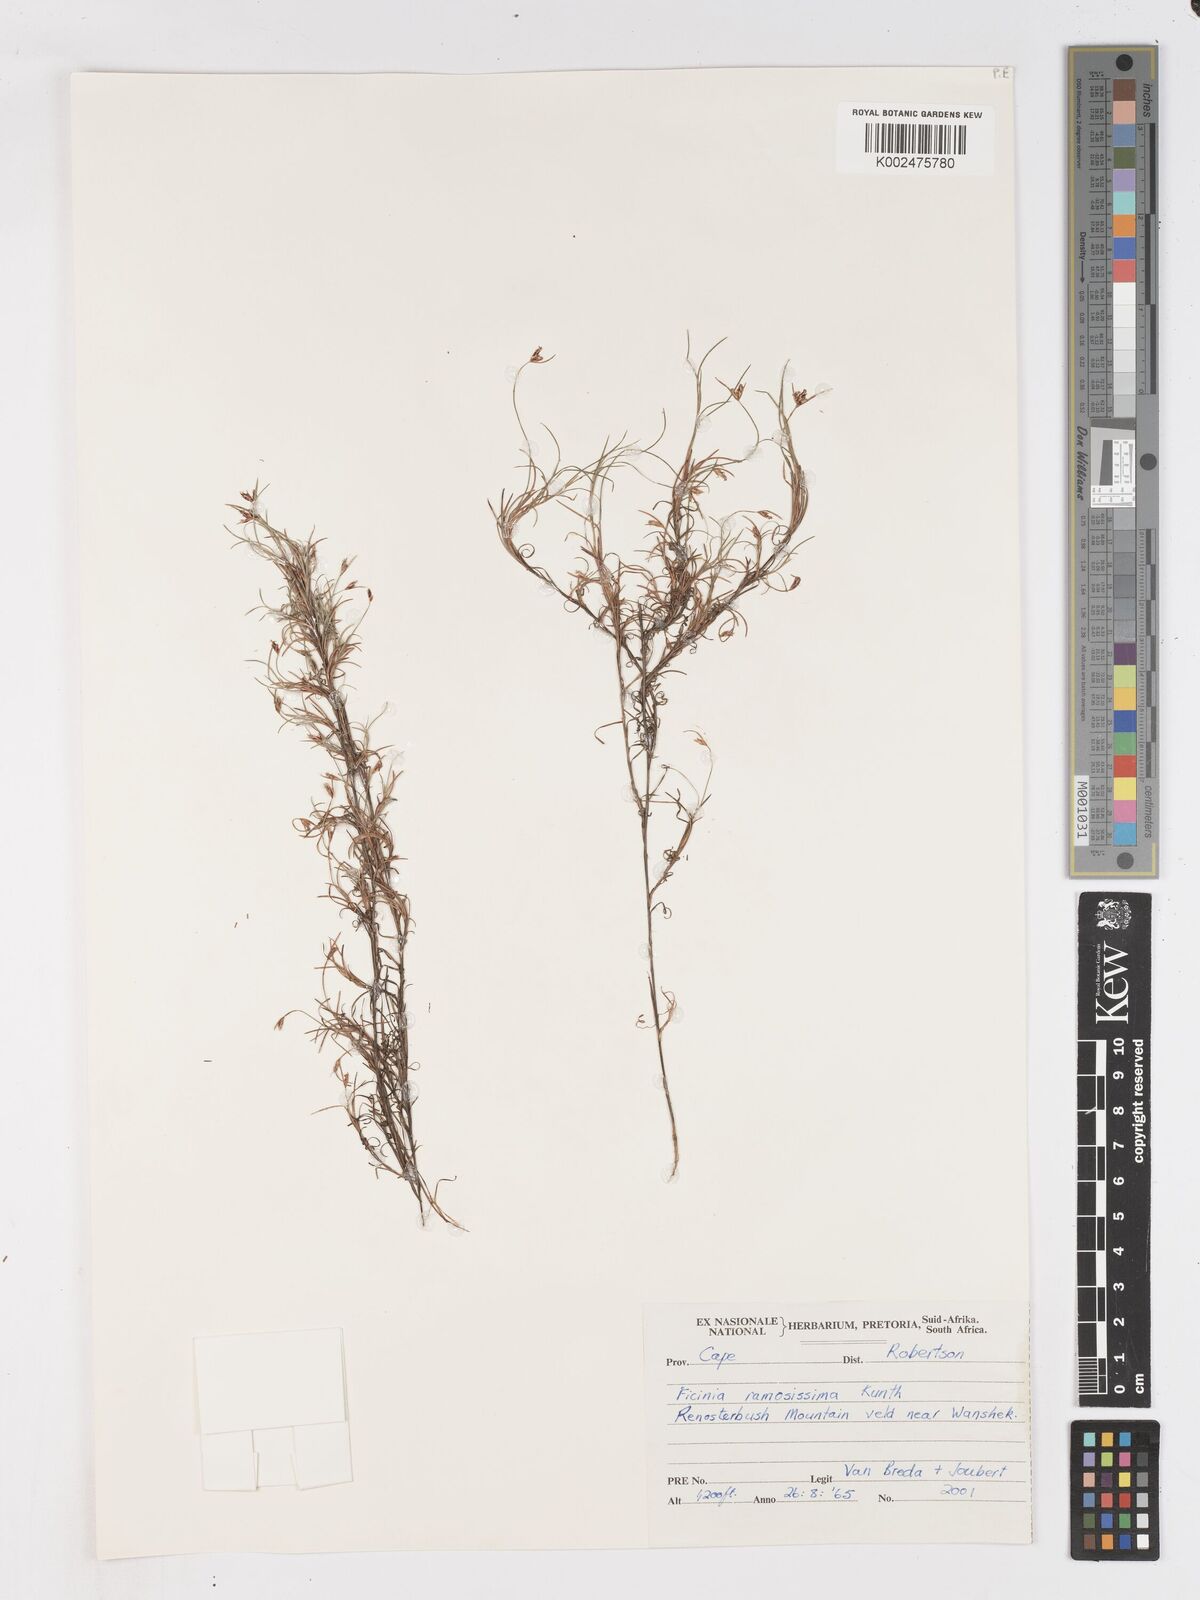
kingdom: Plantae
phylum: Tracheophyta
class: Liliopsida
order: Poales
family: Cyperaceae
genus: Ficinia
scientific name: Ficinia ramosissima
